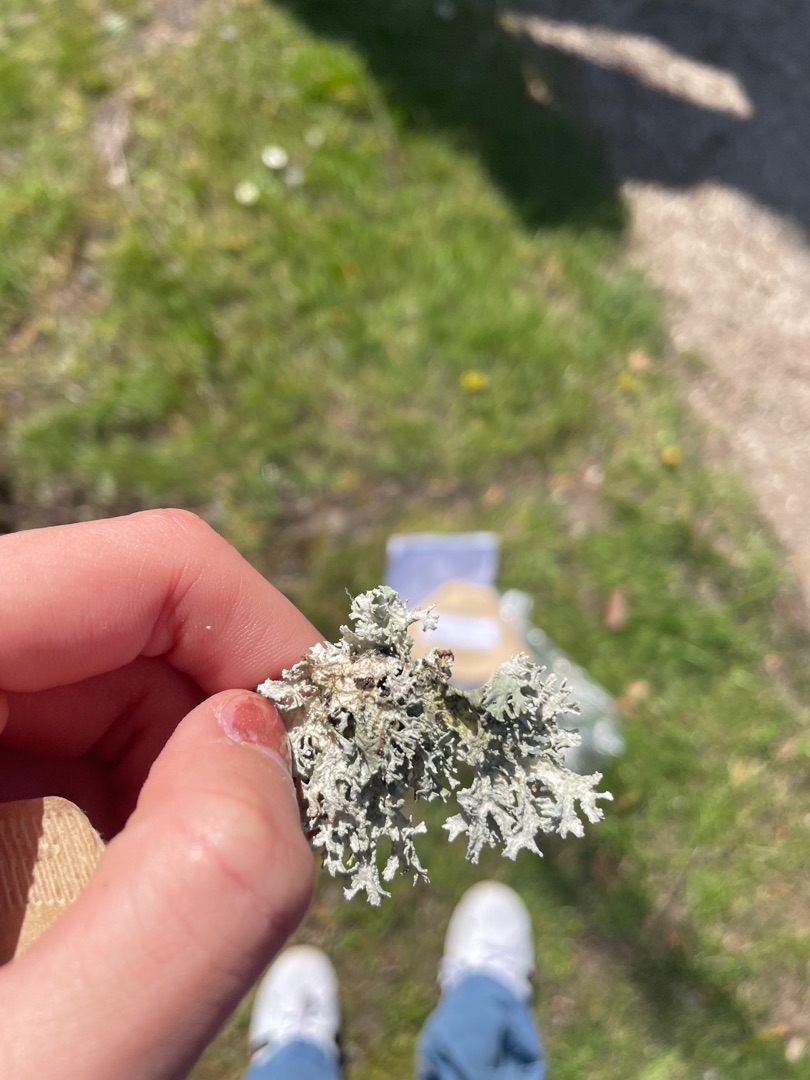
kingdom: Fungi
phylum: Ascomycota
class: Lecanoromycetes
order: Lecanorales
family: Parmeliaceae
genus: Evernia
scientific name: Evernia prunastri
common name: Almindelig slåenlav
